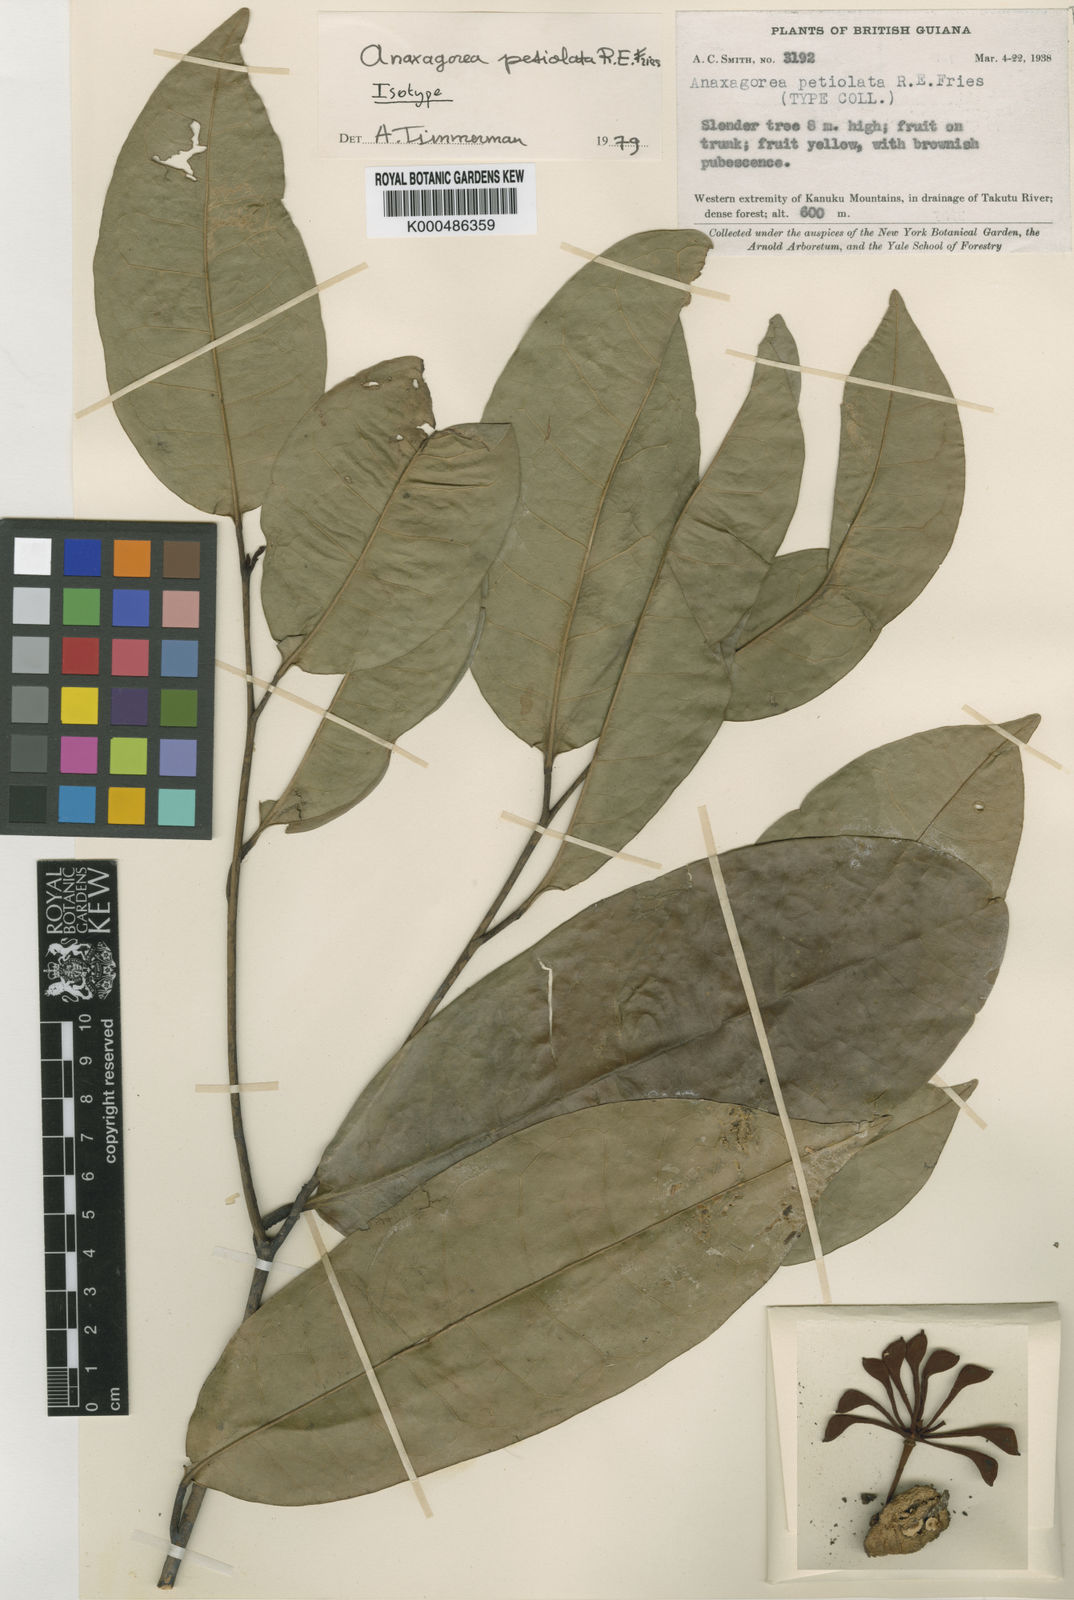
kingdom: Plantae
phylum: Tracheophyta
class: Magnoliopsida
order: Magnoliales
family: Annonaceae
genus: Anaxagorea
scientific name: Anaxagorea petiolata
